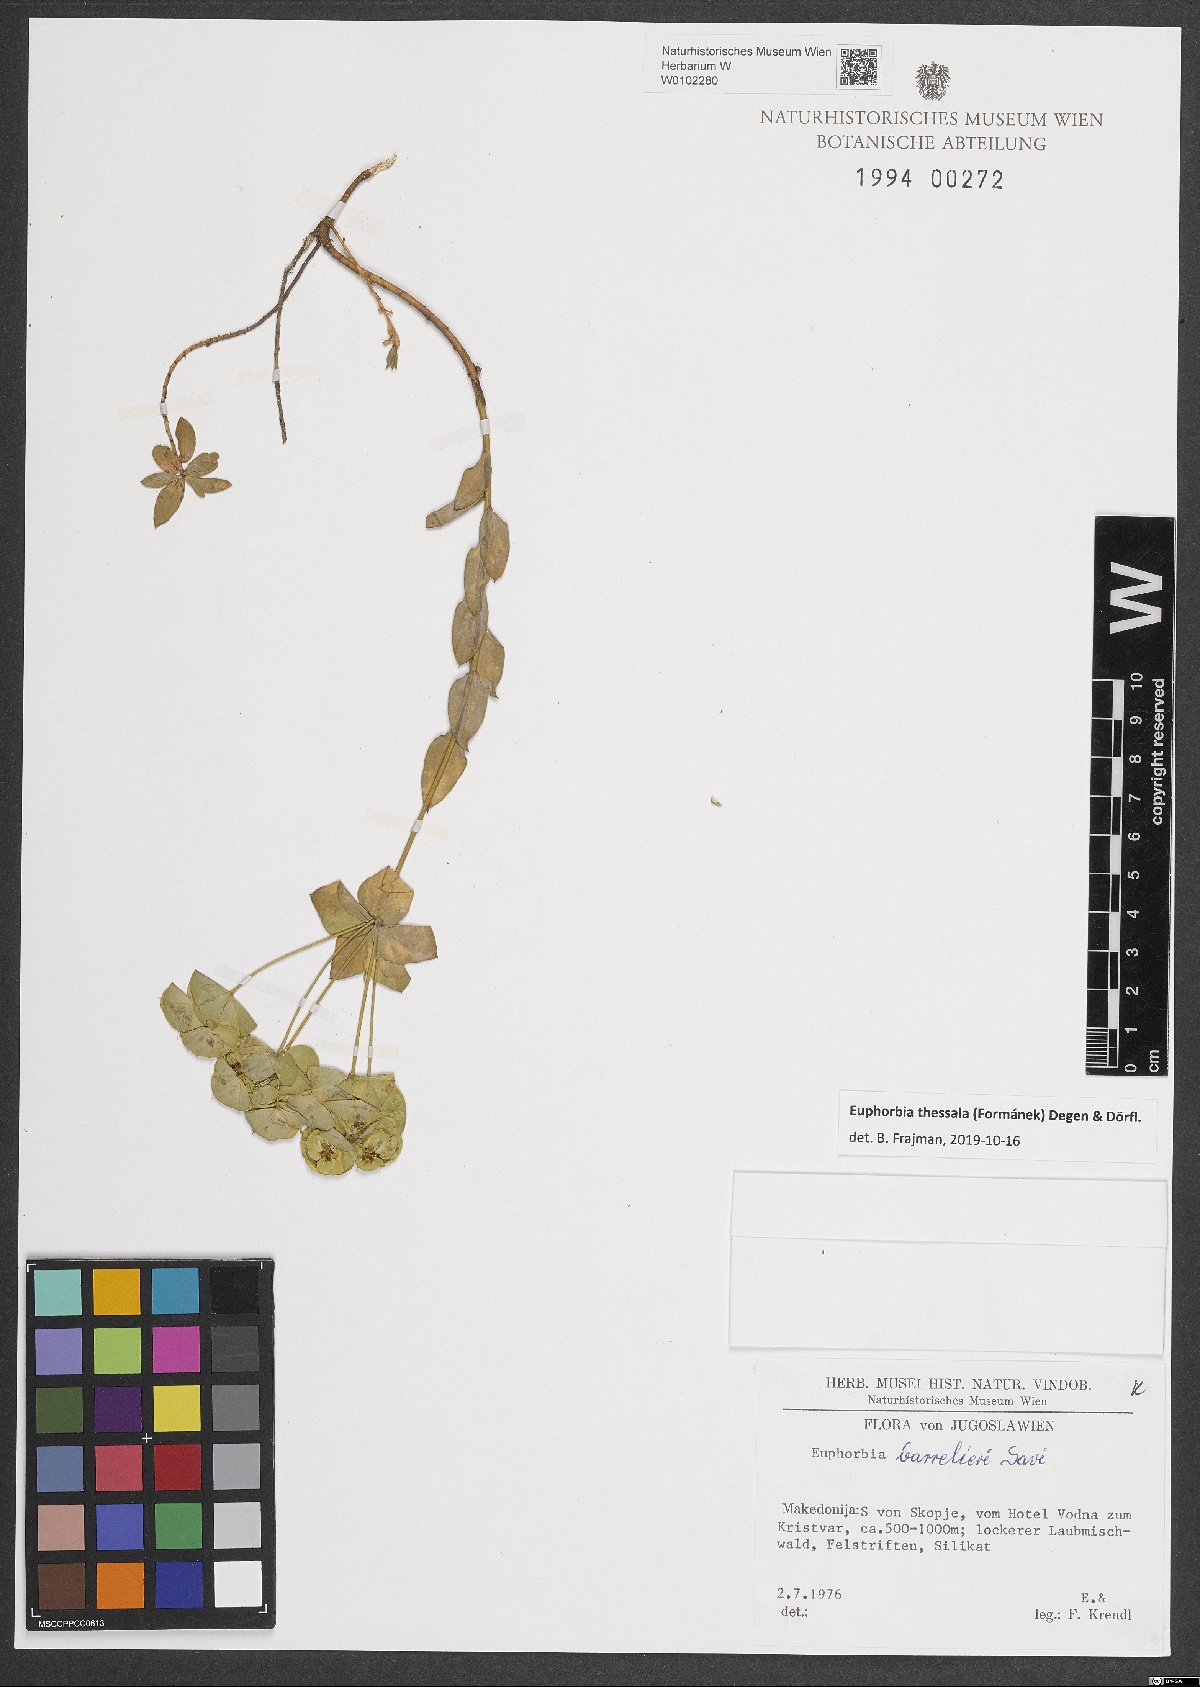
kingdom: Plantae
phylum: Tracheophyta
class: Magnoliopsida
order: Malpighiales
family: Euphorbiaceae
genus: Euphorbia
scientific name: Euphorbia barrelieri
